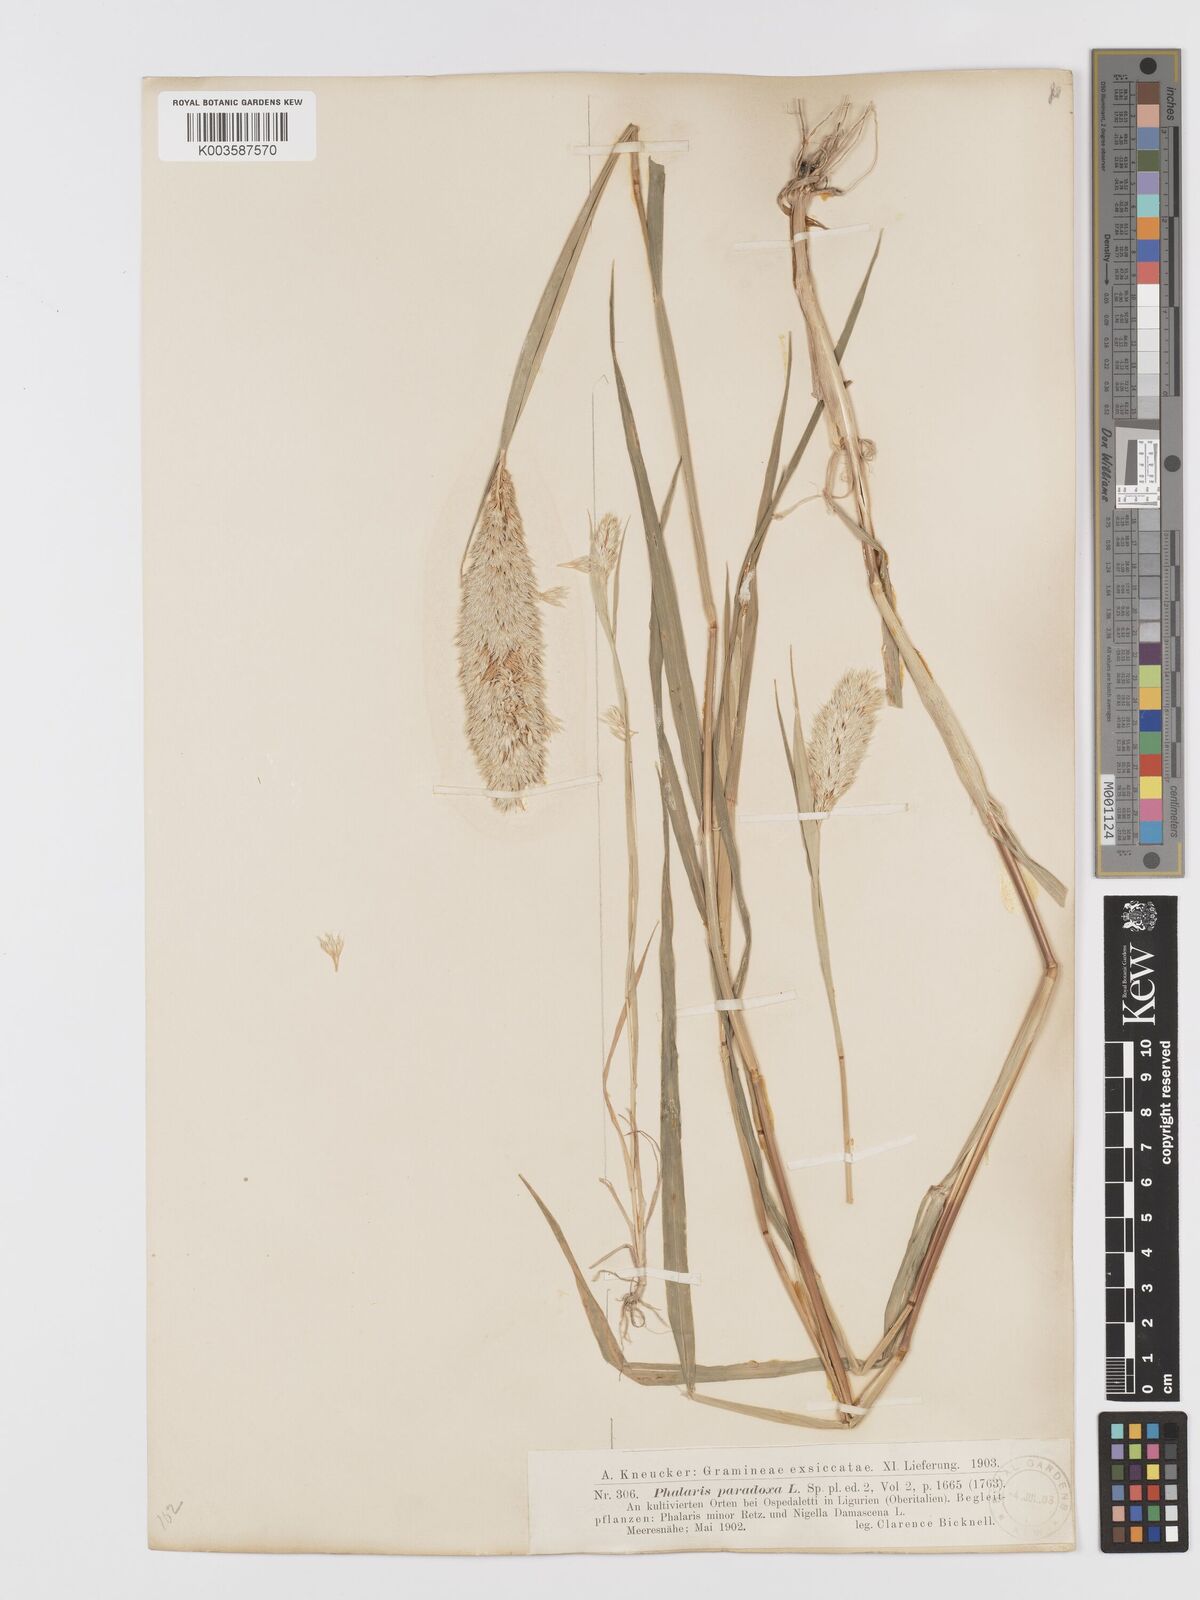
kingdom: Plantae
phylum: Tracheophyta
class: Liliopsida
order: Poales
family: Poaceae
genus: Phalaris
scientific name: Phalaris paradoxa
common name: Awned canary-grass
